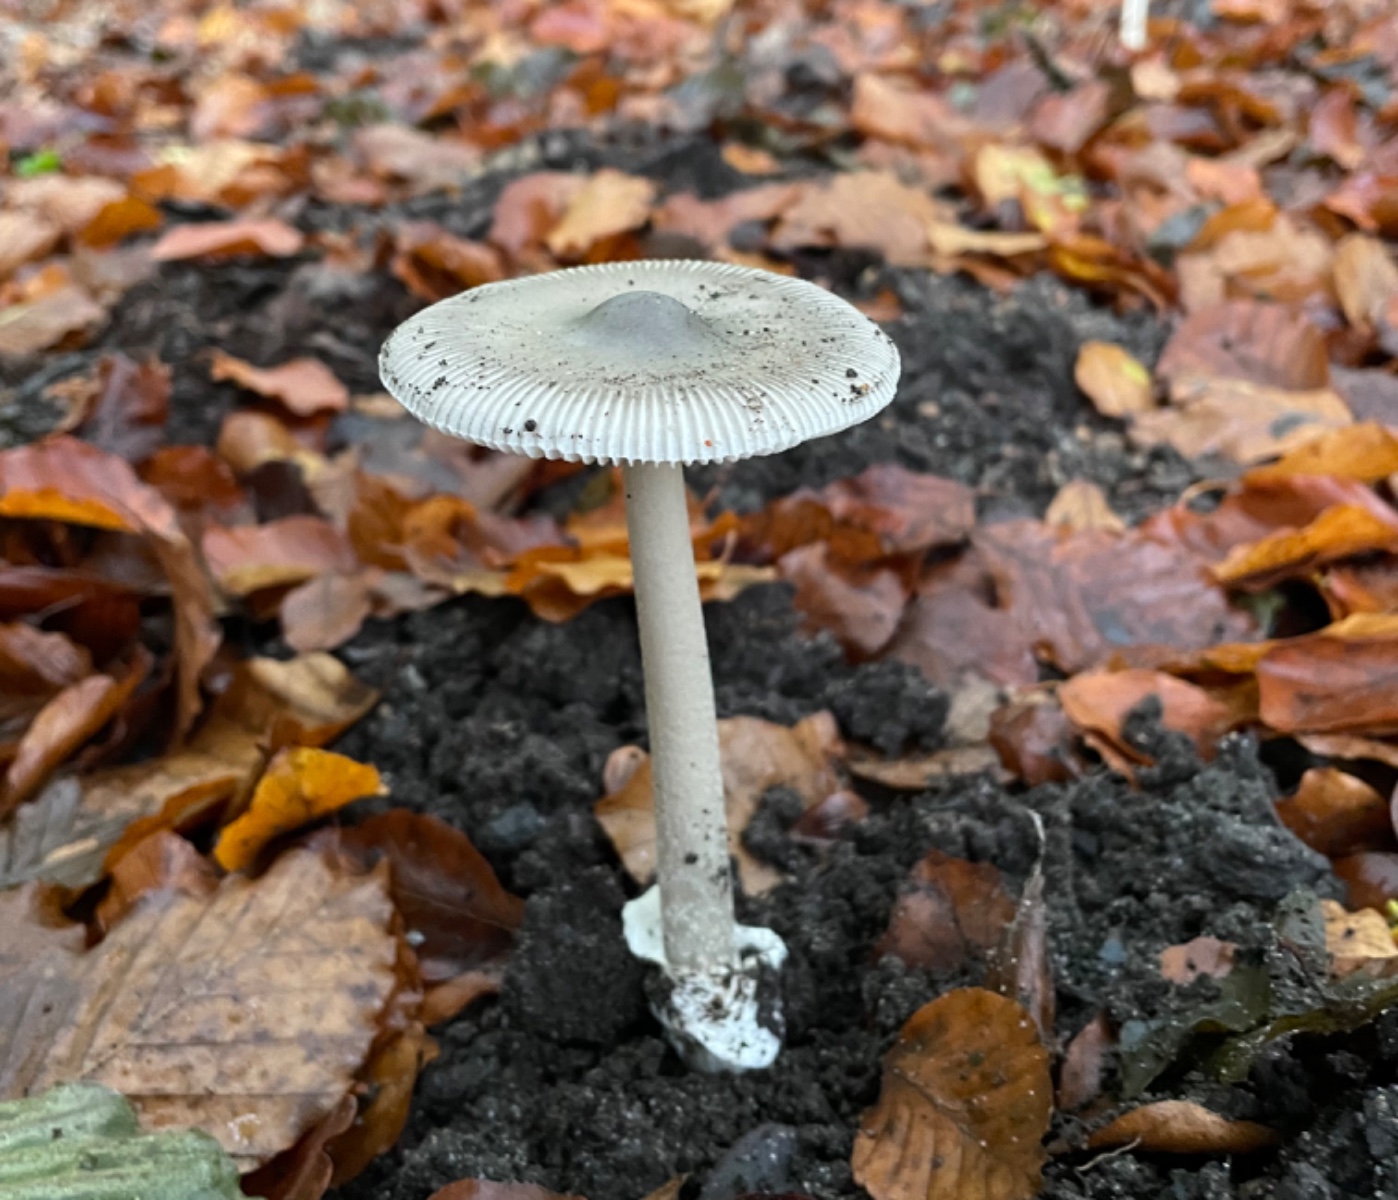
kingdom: Fungi
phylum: Basidiomycota
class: Agaricomycetes
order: Agaricales
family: Amanitaceae
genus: Amanita
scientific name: Amanita vaginata
